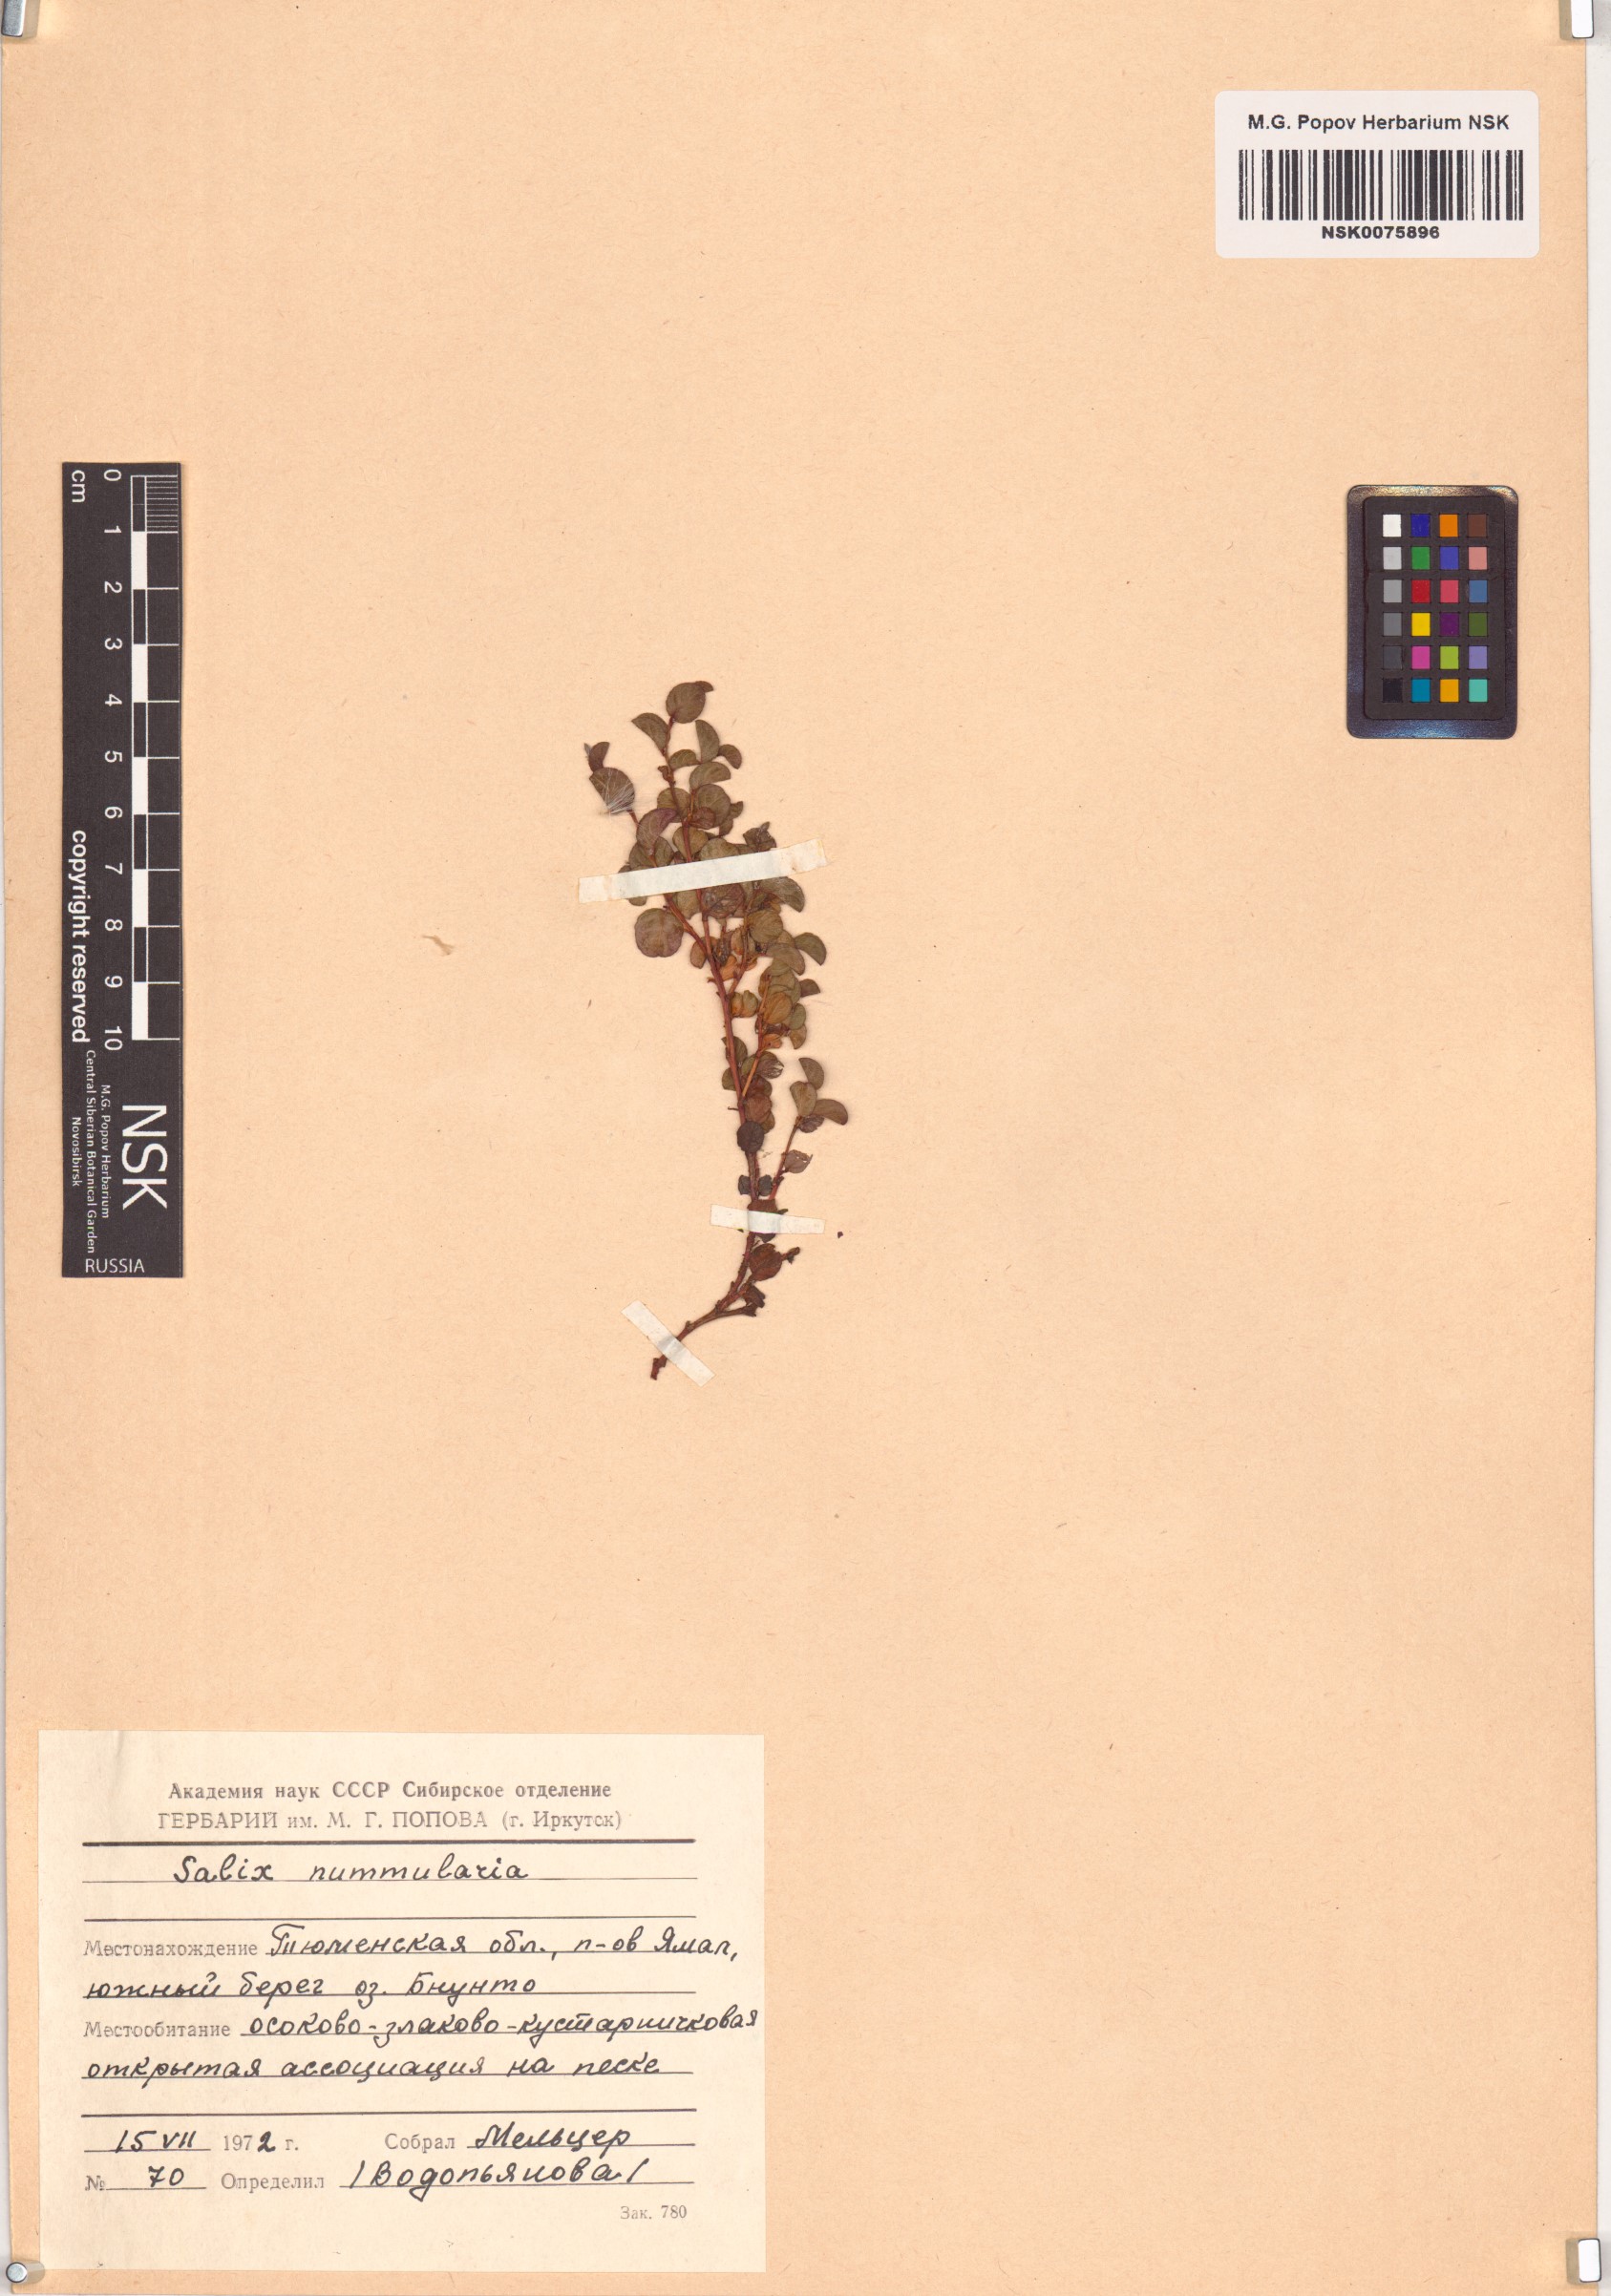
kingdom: Plantae
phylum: Tracheophyta
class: Magnoliopsida
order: Malpighiales
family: Salicaceae
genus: Salix
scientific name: Salix nummularia
